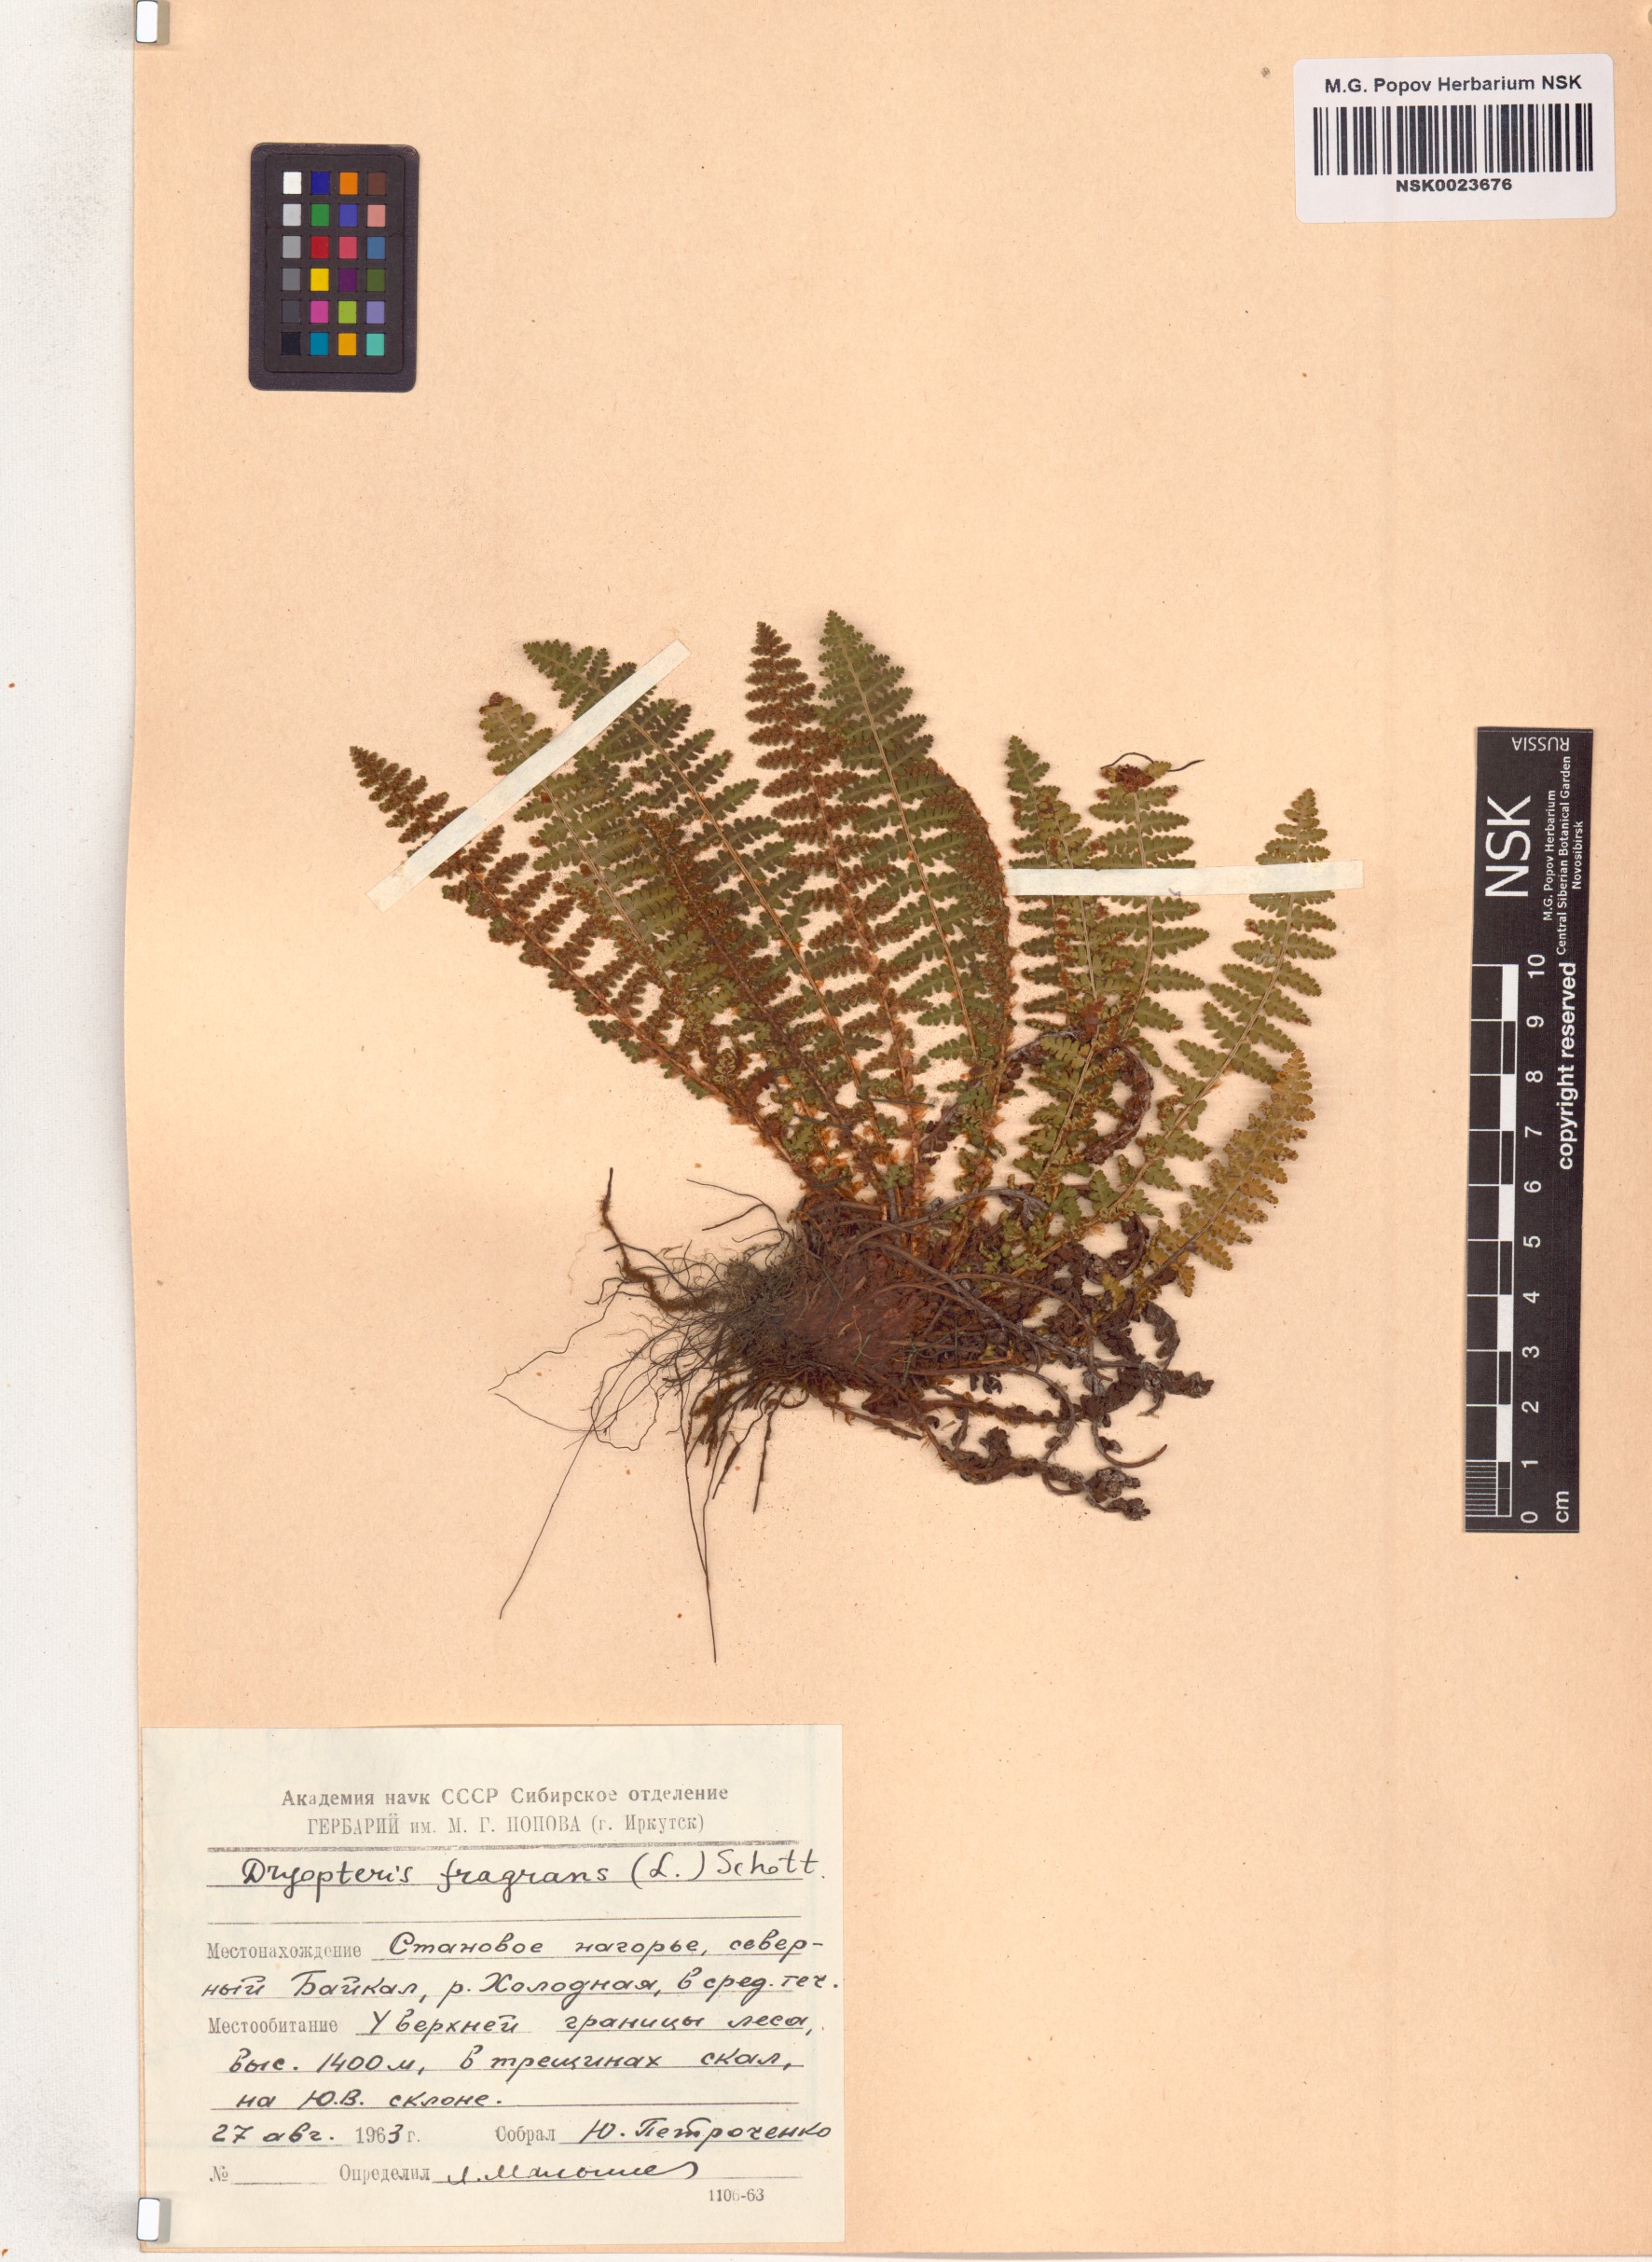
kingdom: Plantae
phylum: Tracheophyta
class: Polypodiopsida
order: Polypodiales
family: Dryopteridaceae
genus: Dryopteris
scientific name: Dryopteris fragrans
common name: Fragrant wood fern
